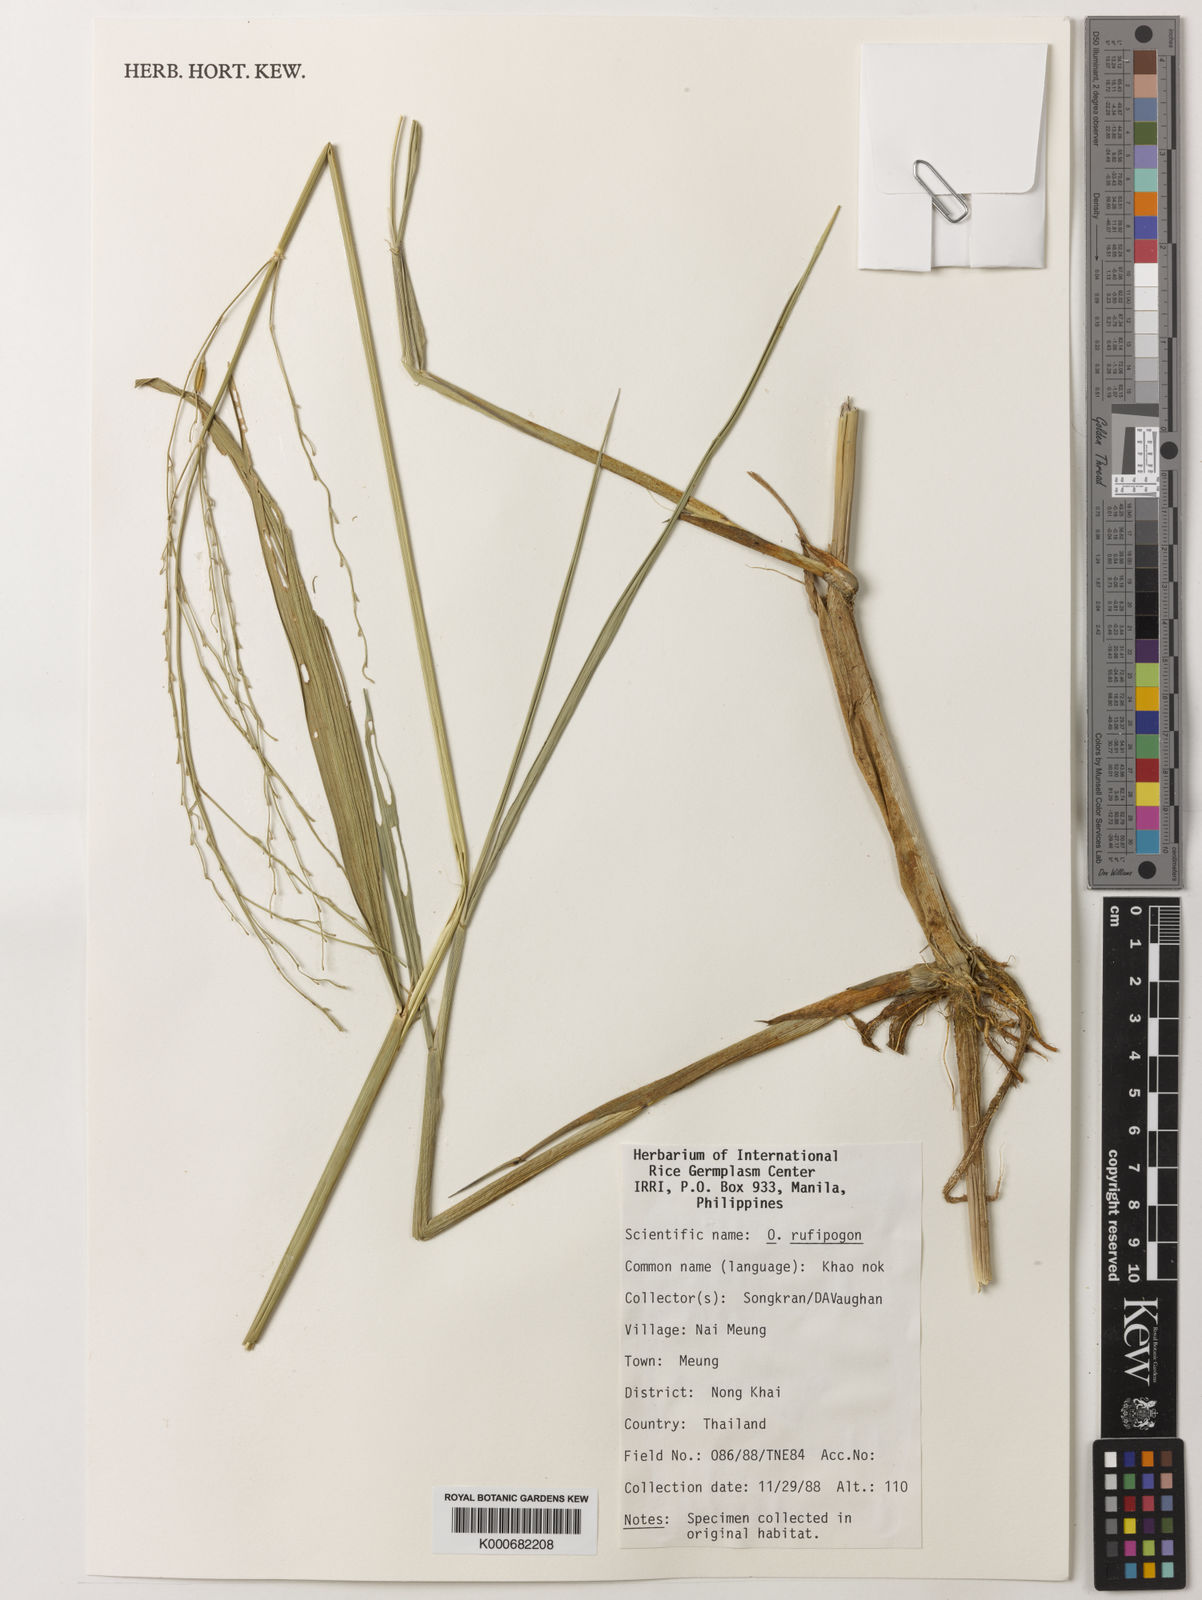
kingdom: Plantae
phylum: Tracheophyta
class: Liliopsida
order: Poales
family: Poaceae
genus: Oryza
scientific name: Oryza rufipogon
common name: Red rice
